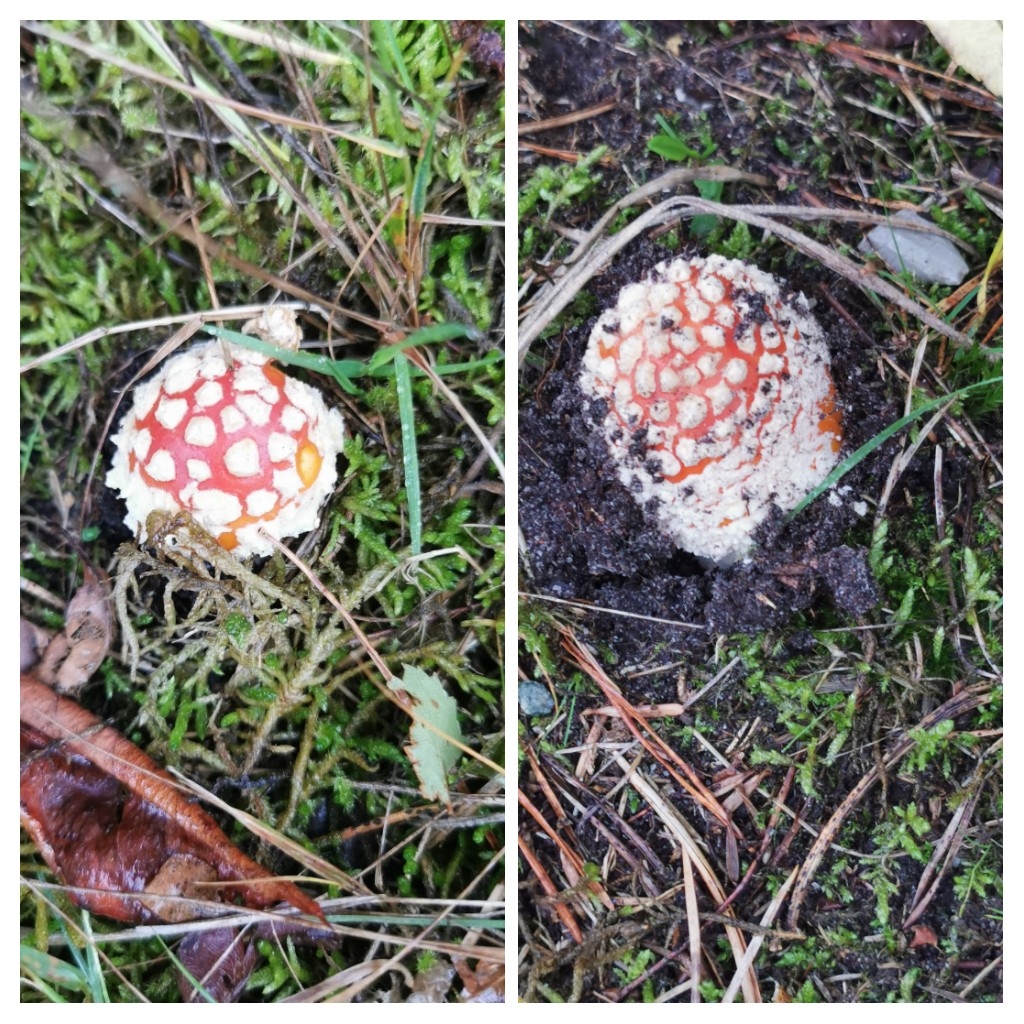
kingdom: Fungi
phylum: Basidiomycota
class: Agaricomycetes
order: Agaricales
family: Amanitaceae
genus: Amanita
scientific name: Amanita muscaria
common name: rød fluesvamp
